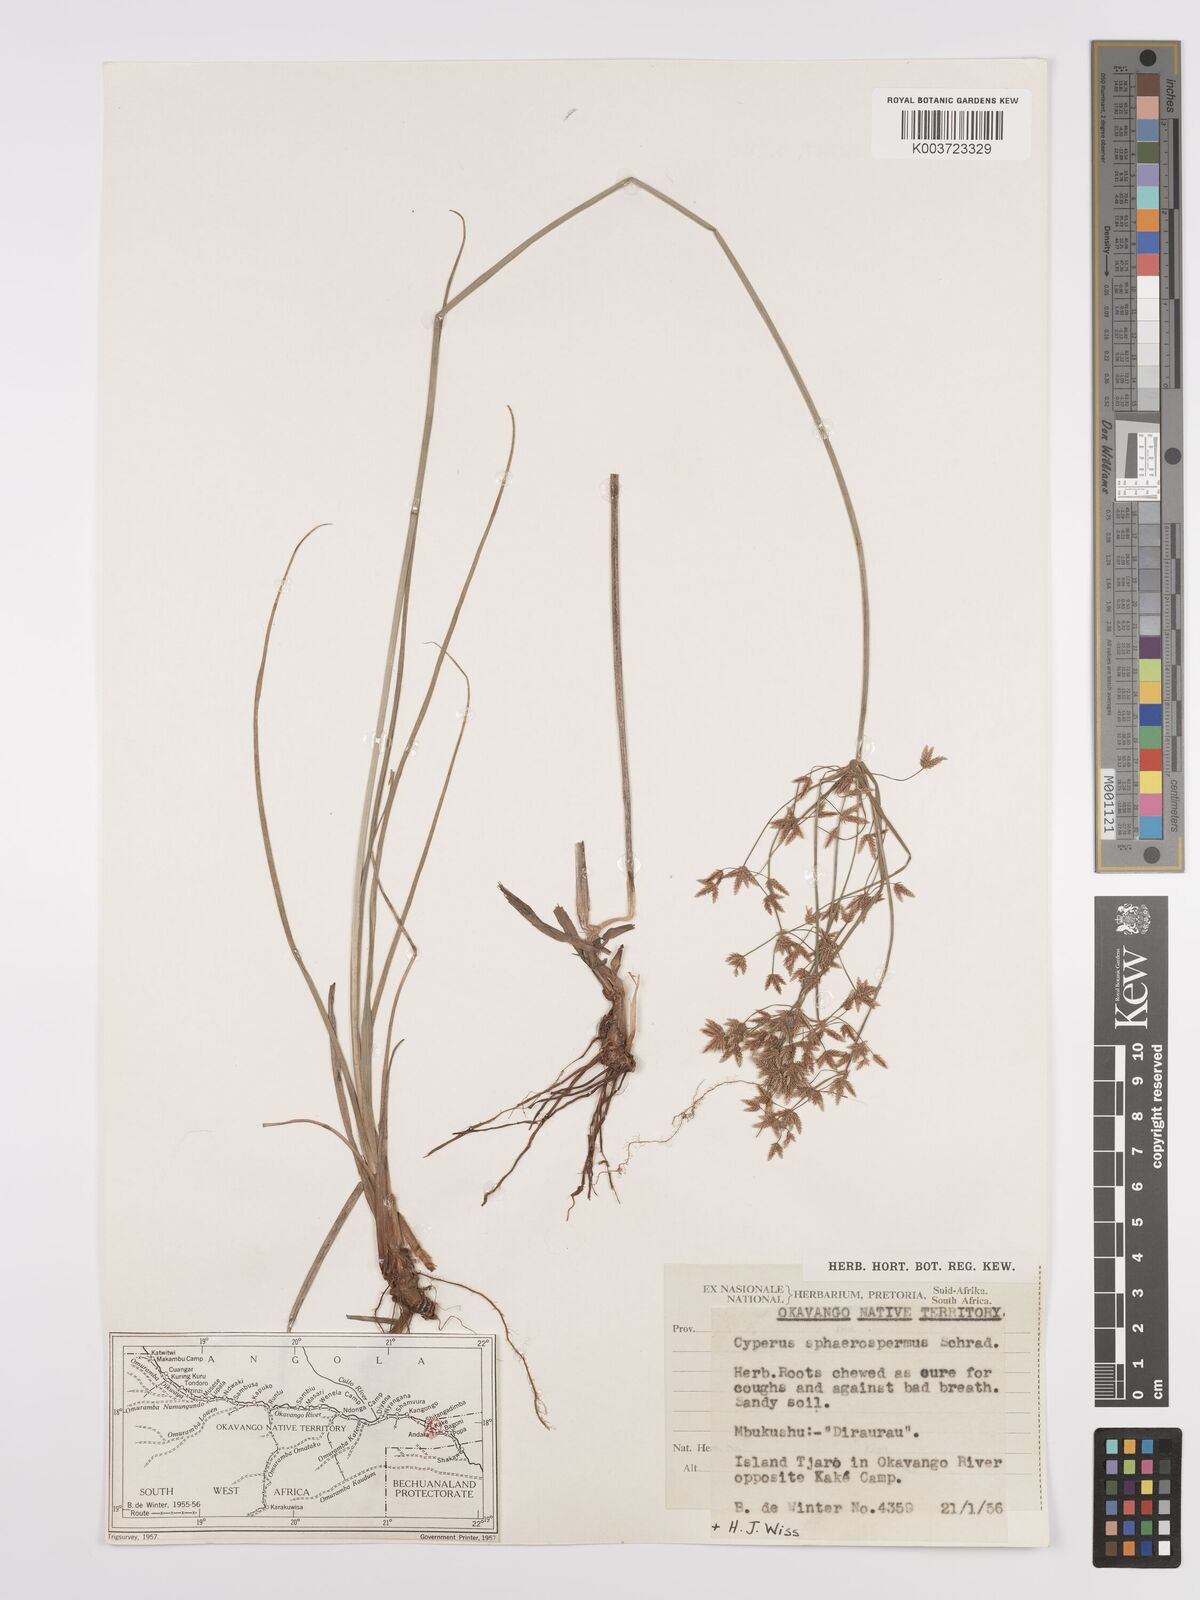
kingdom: Plantae
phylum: Tracheophyta
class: Liliopsida
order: Poales
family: Cyperaceae
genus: Cyperus
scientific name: Cyperus denudatus
